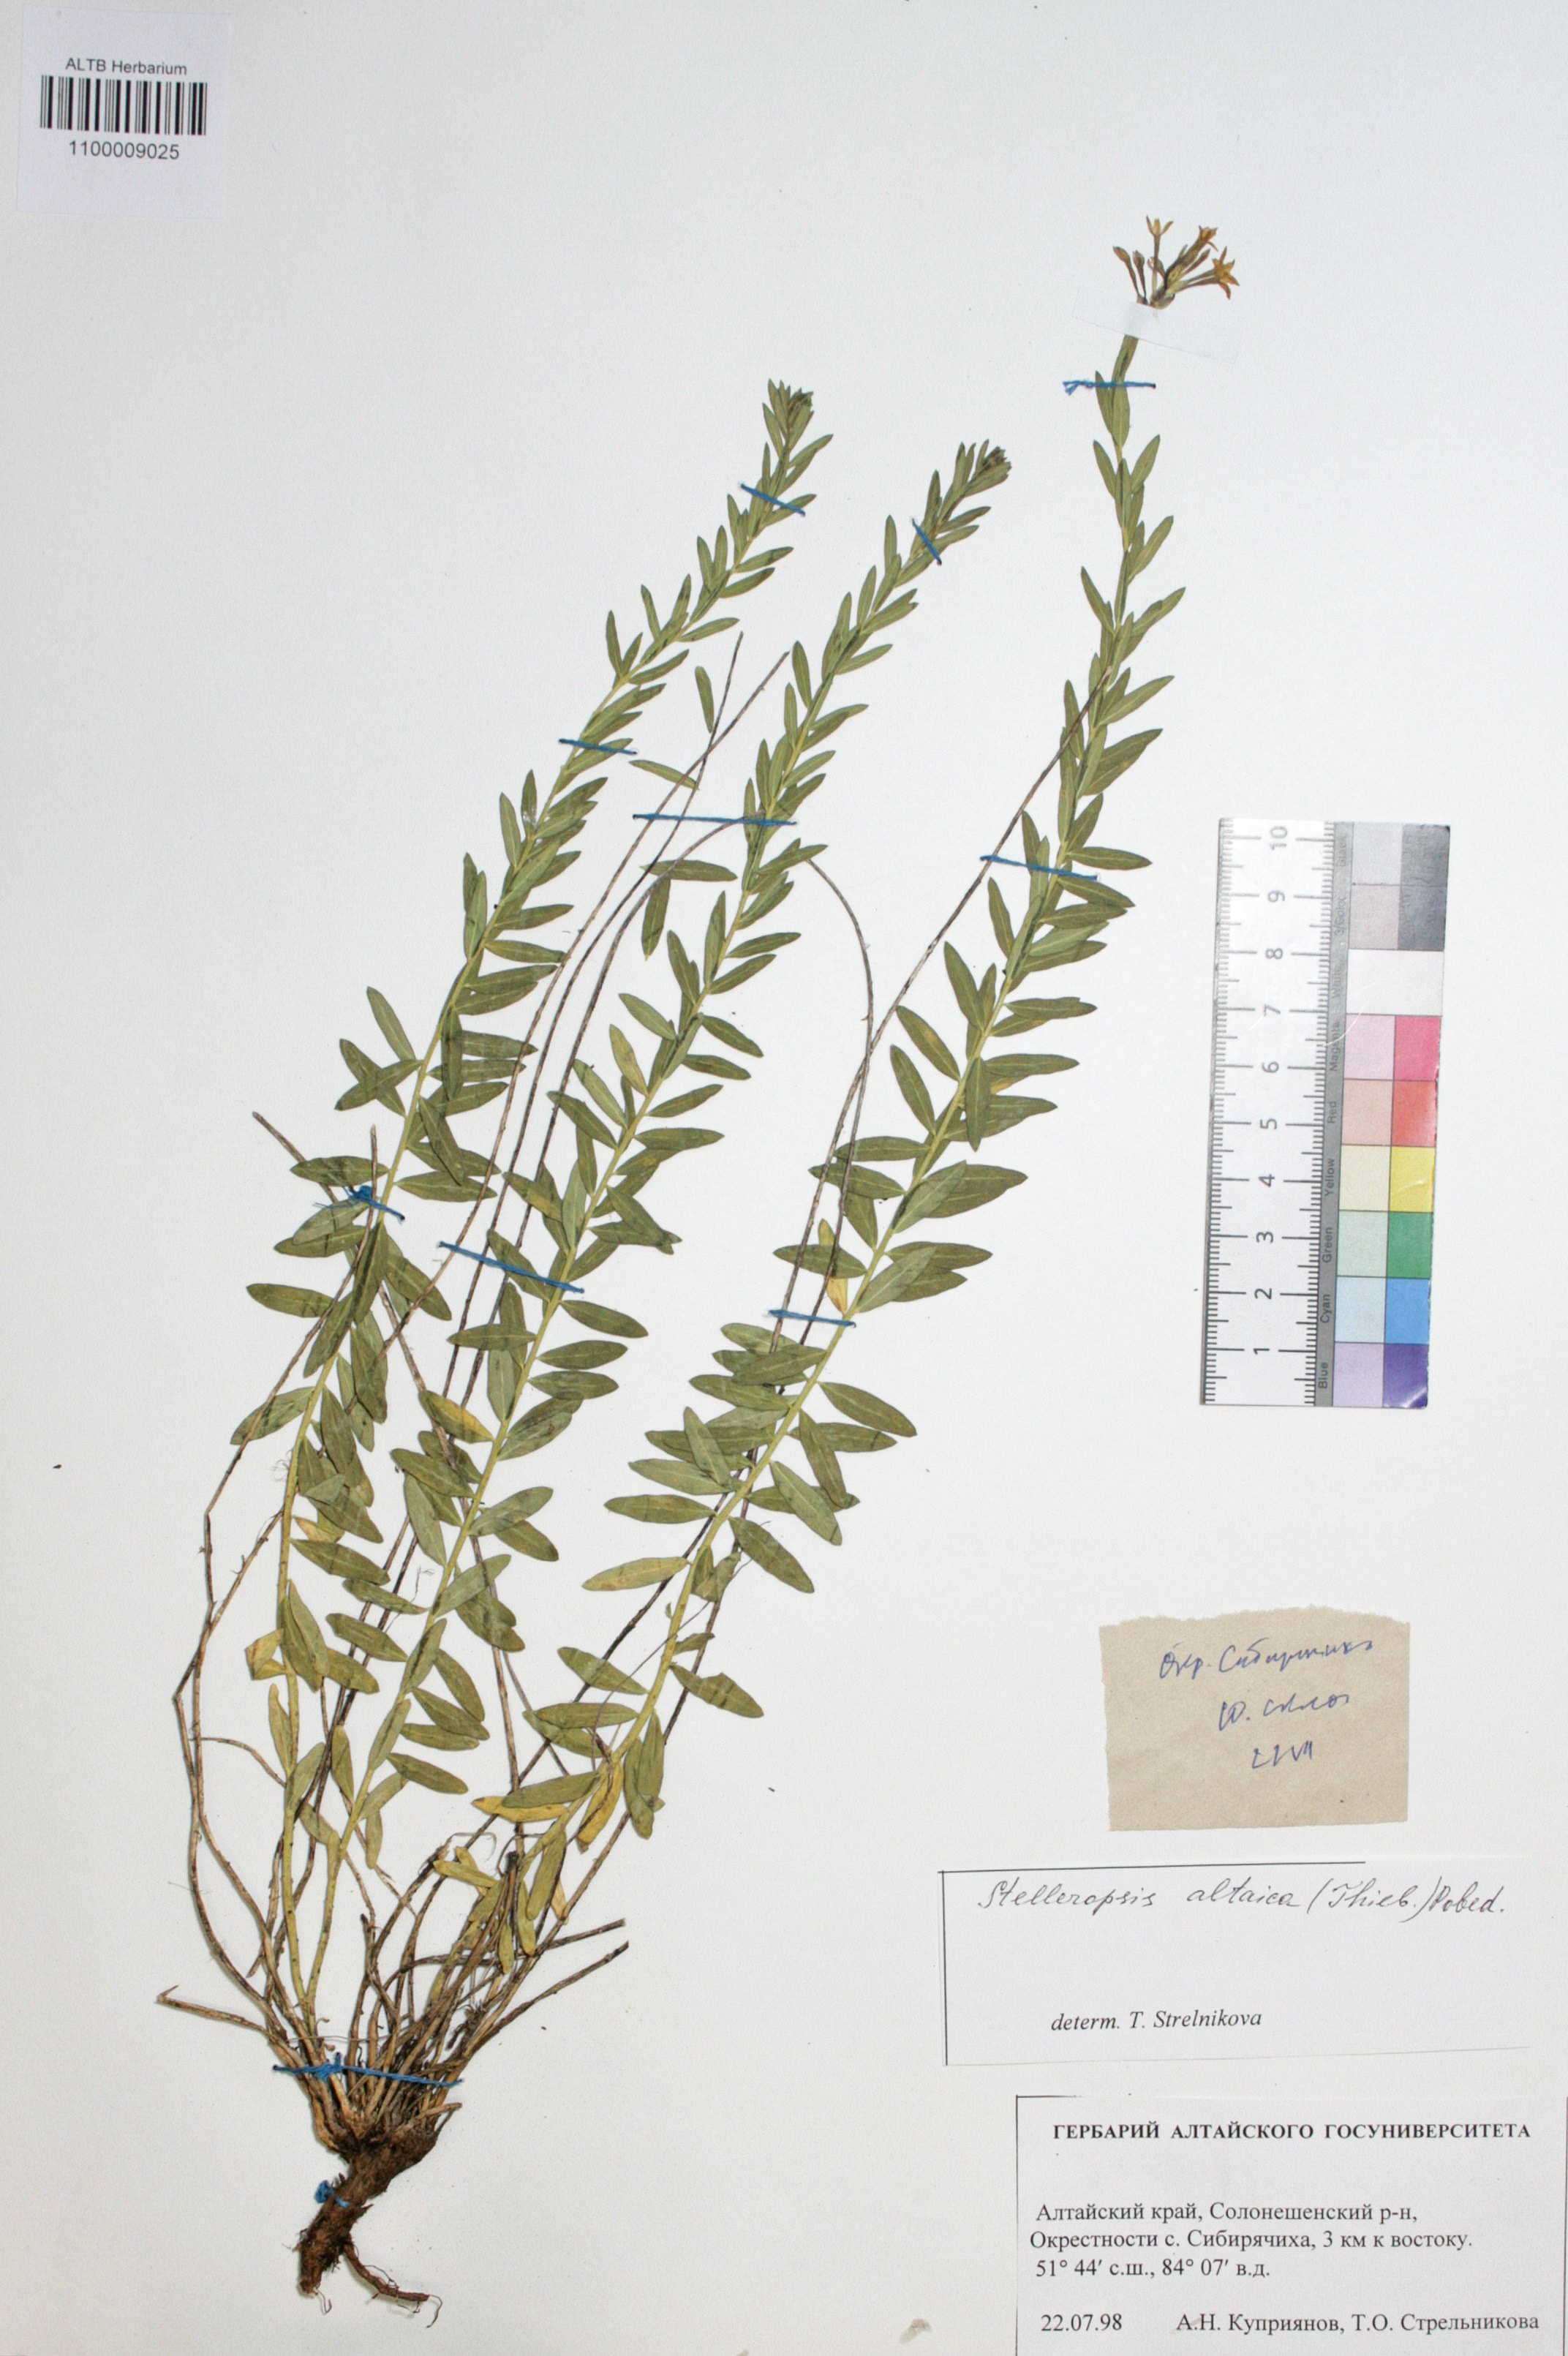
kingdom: Plantae
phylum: Tracheophyta
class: Magnoliopsida
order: Malvales
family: Thymelaeaceae
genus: Diarthron
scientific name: Diarthron altaicum
